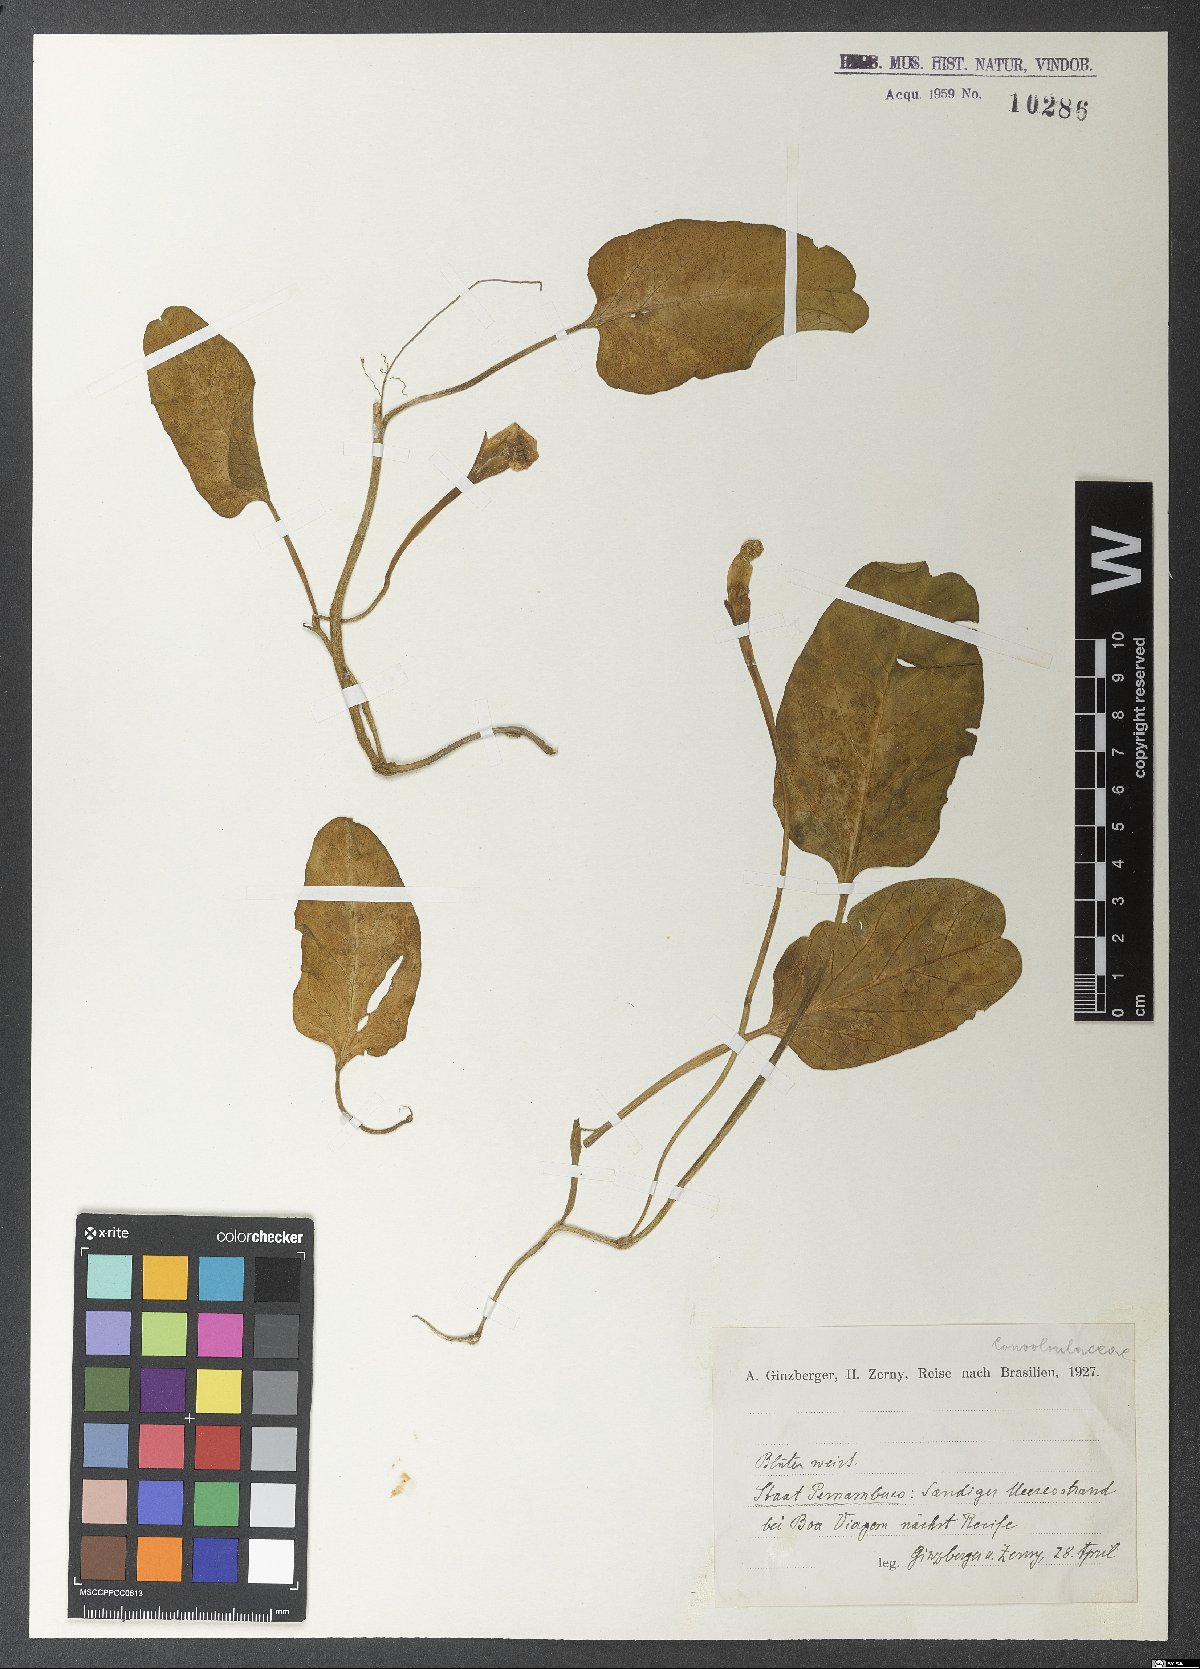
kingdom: Plantae
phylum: Tracheophyta
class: Magnoliopsida
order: Solanales
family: Convolvulaceae
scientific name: Convolvulaceae
